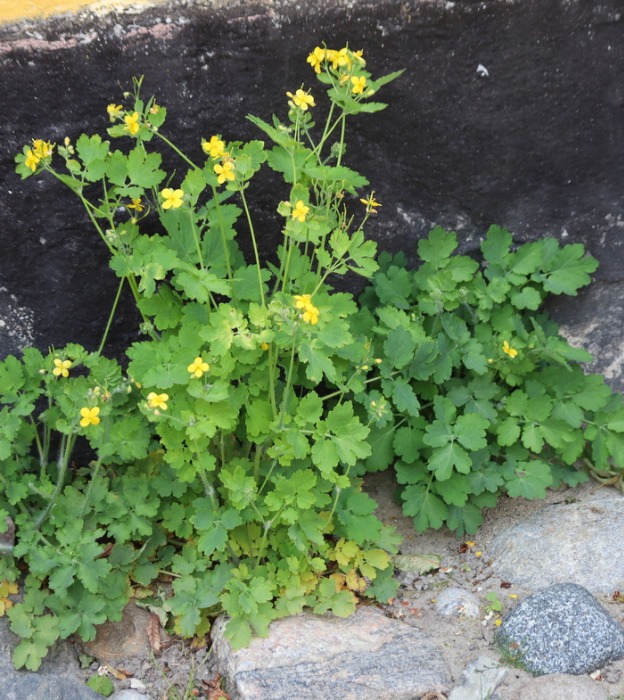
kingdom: Plantae
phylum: Tracheophyta
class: Magnoliopsida
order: Ranunculales
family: Papaveraceae
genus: Chelidonium
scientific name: Chelidonium majus
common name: Svaleurt
